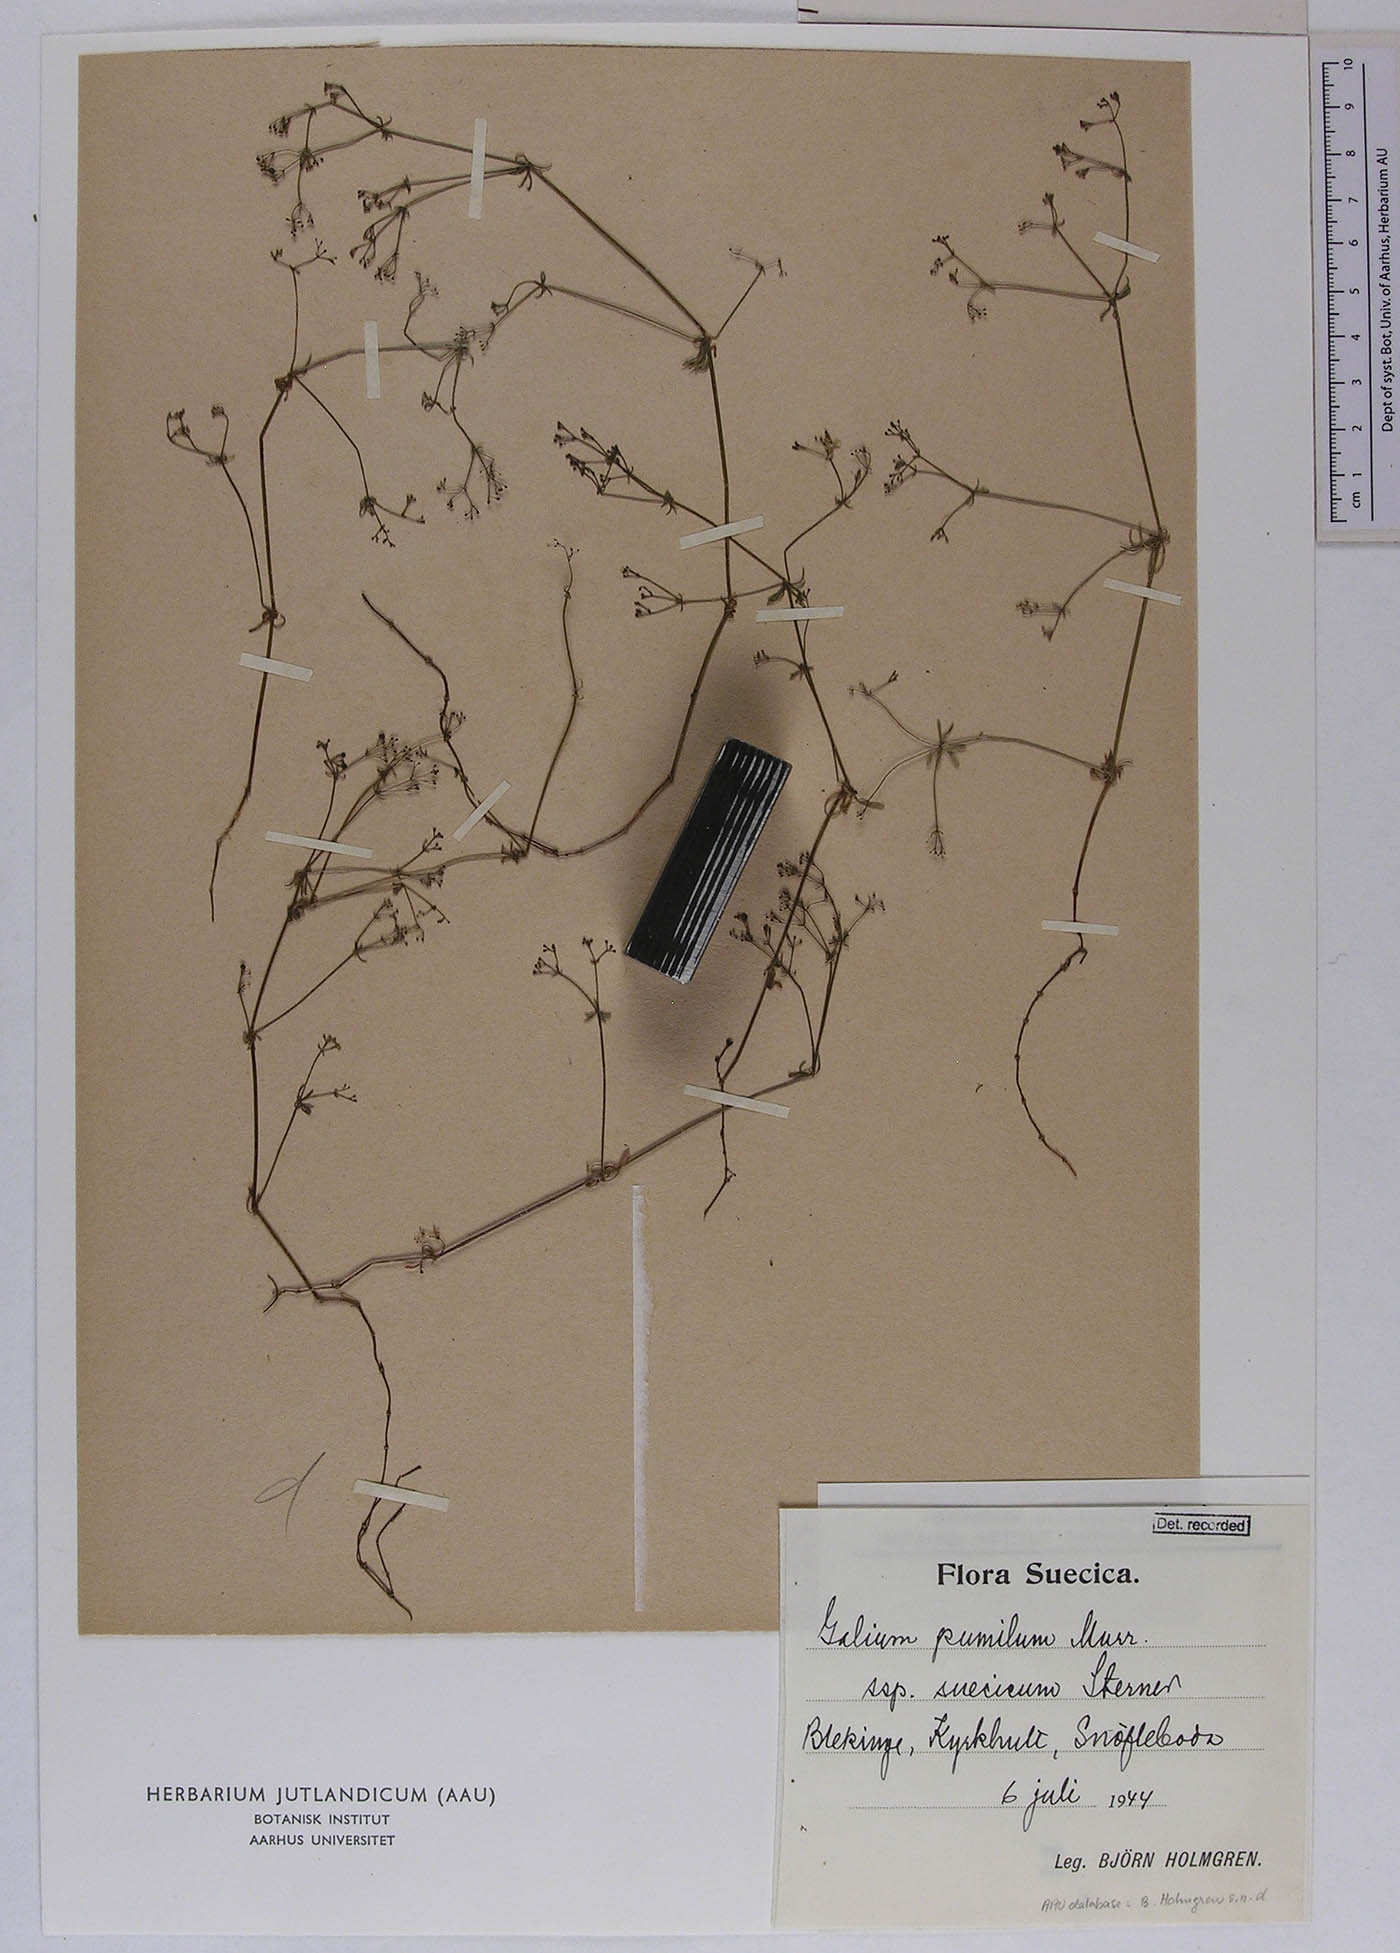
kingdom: Plantae
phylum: Tracheophyta
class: Magnoliopsida
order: Gentianales
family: Rubiaceae
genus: Galium
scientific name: Galium pusillum
